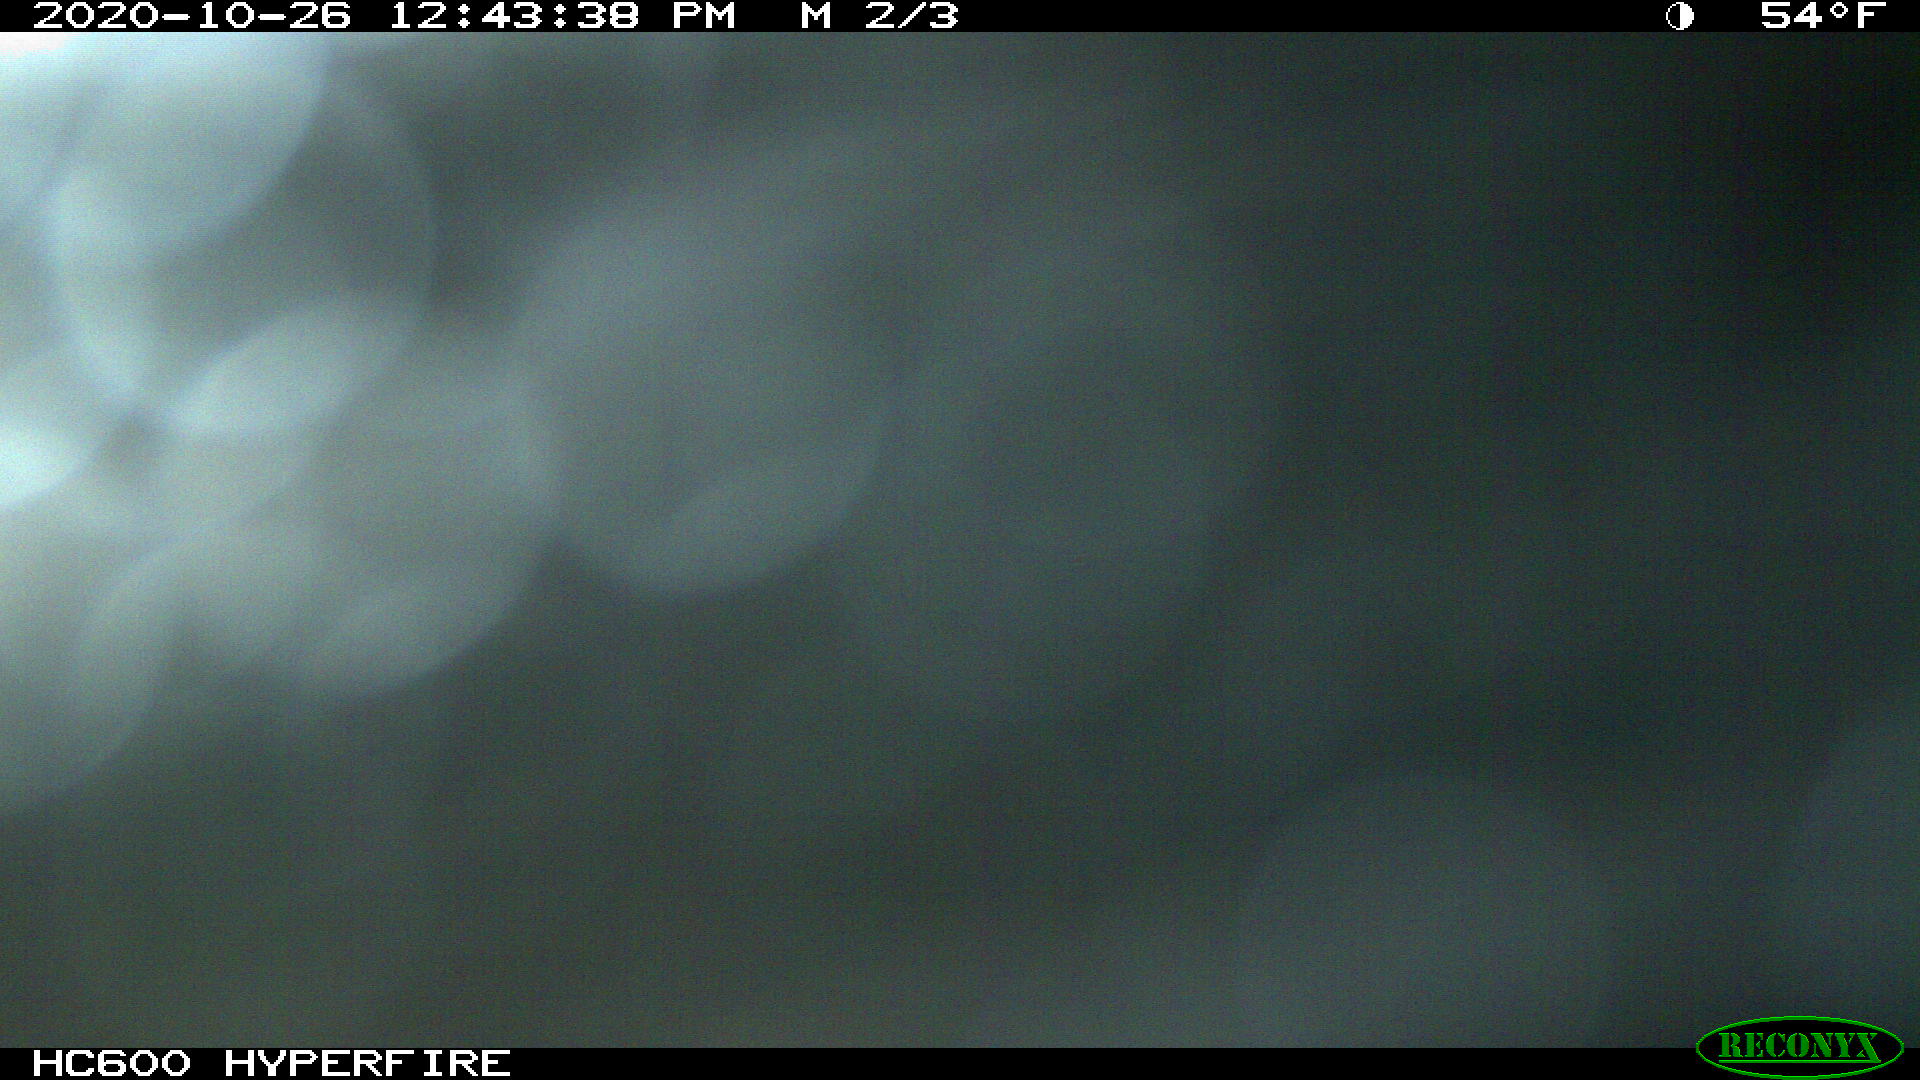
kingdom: Animalia
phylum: Chordata
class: Mammalia
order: Perissodactyla
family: Equidae
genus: Equus
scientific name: Equus caballus
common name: Horse
